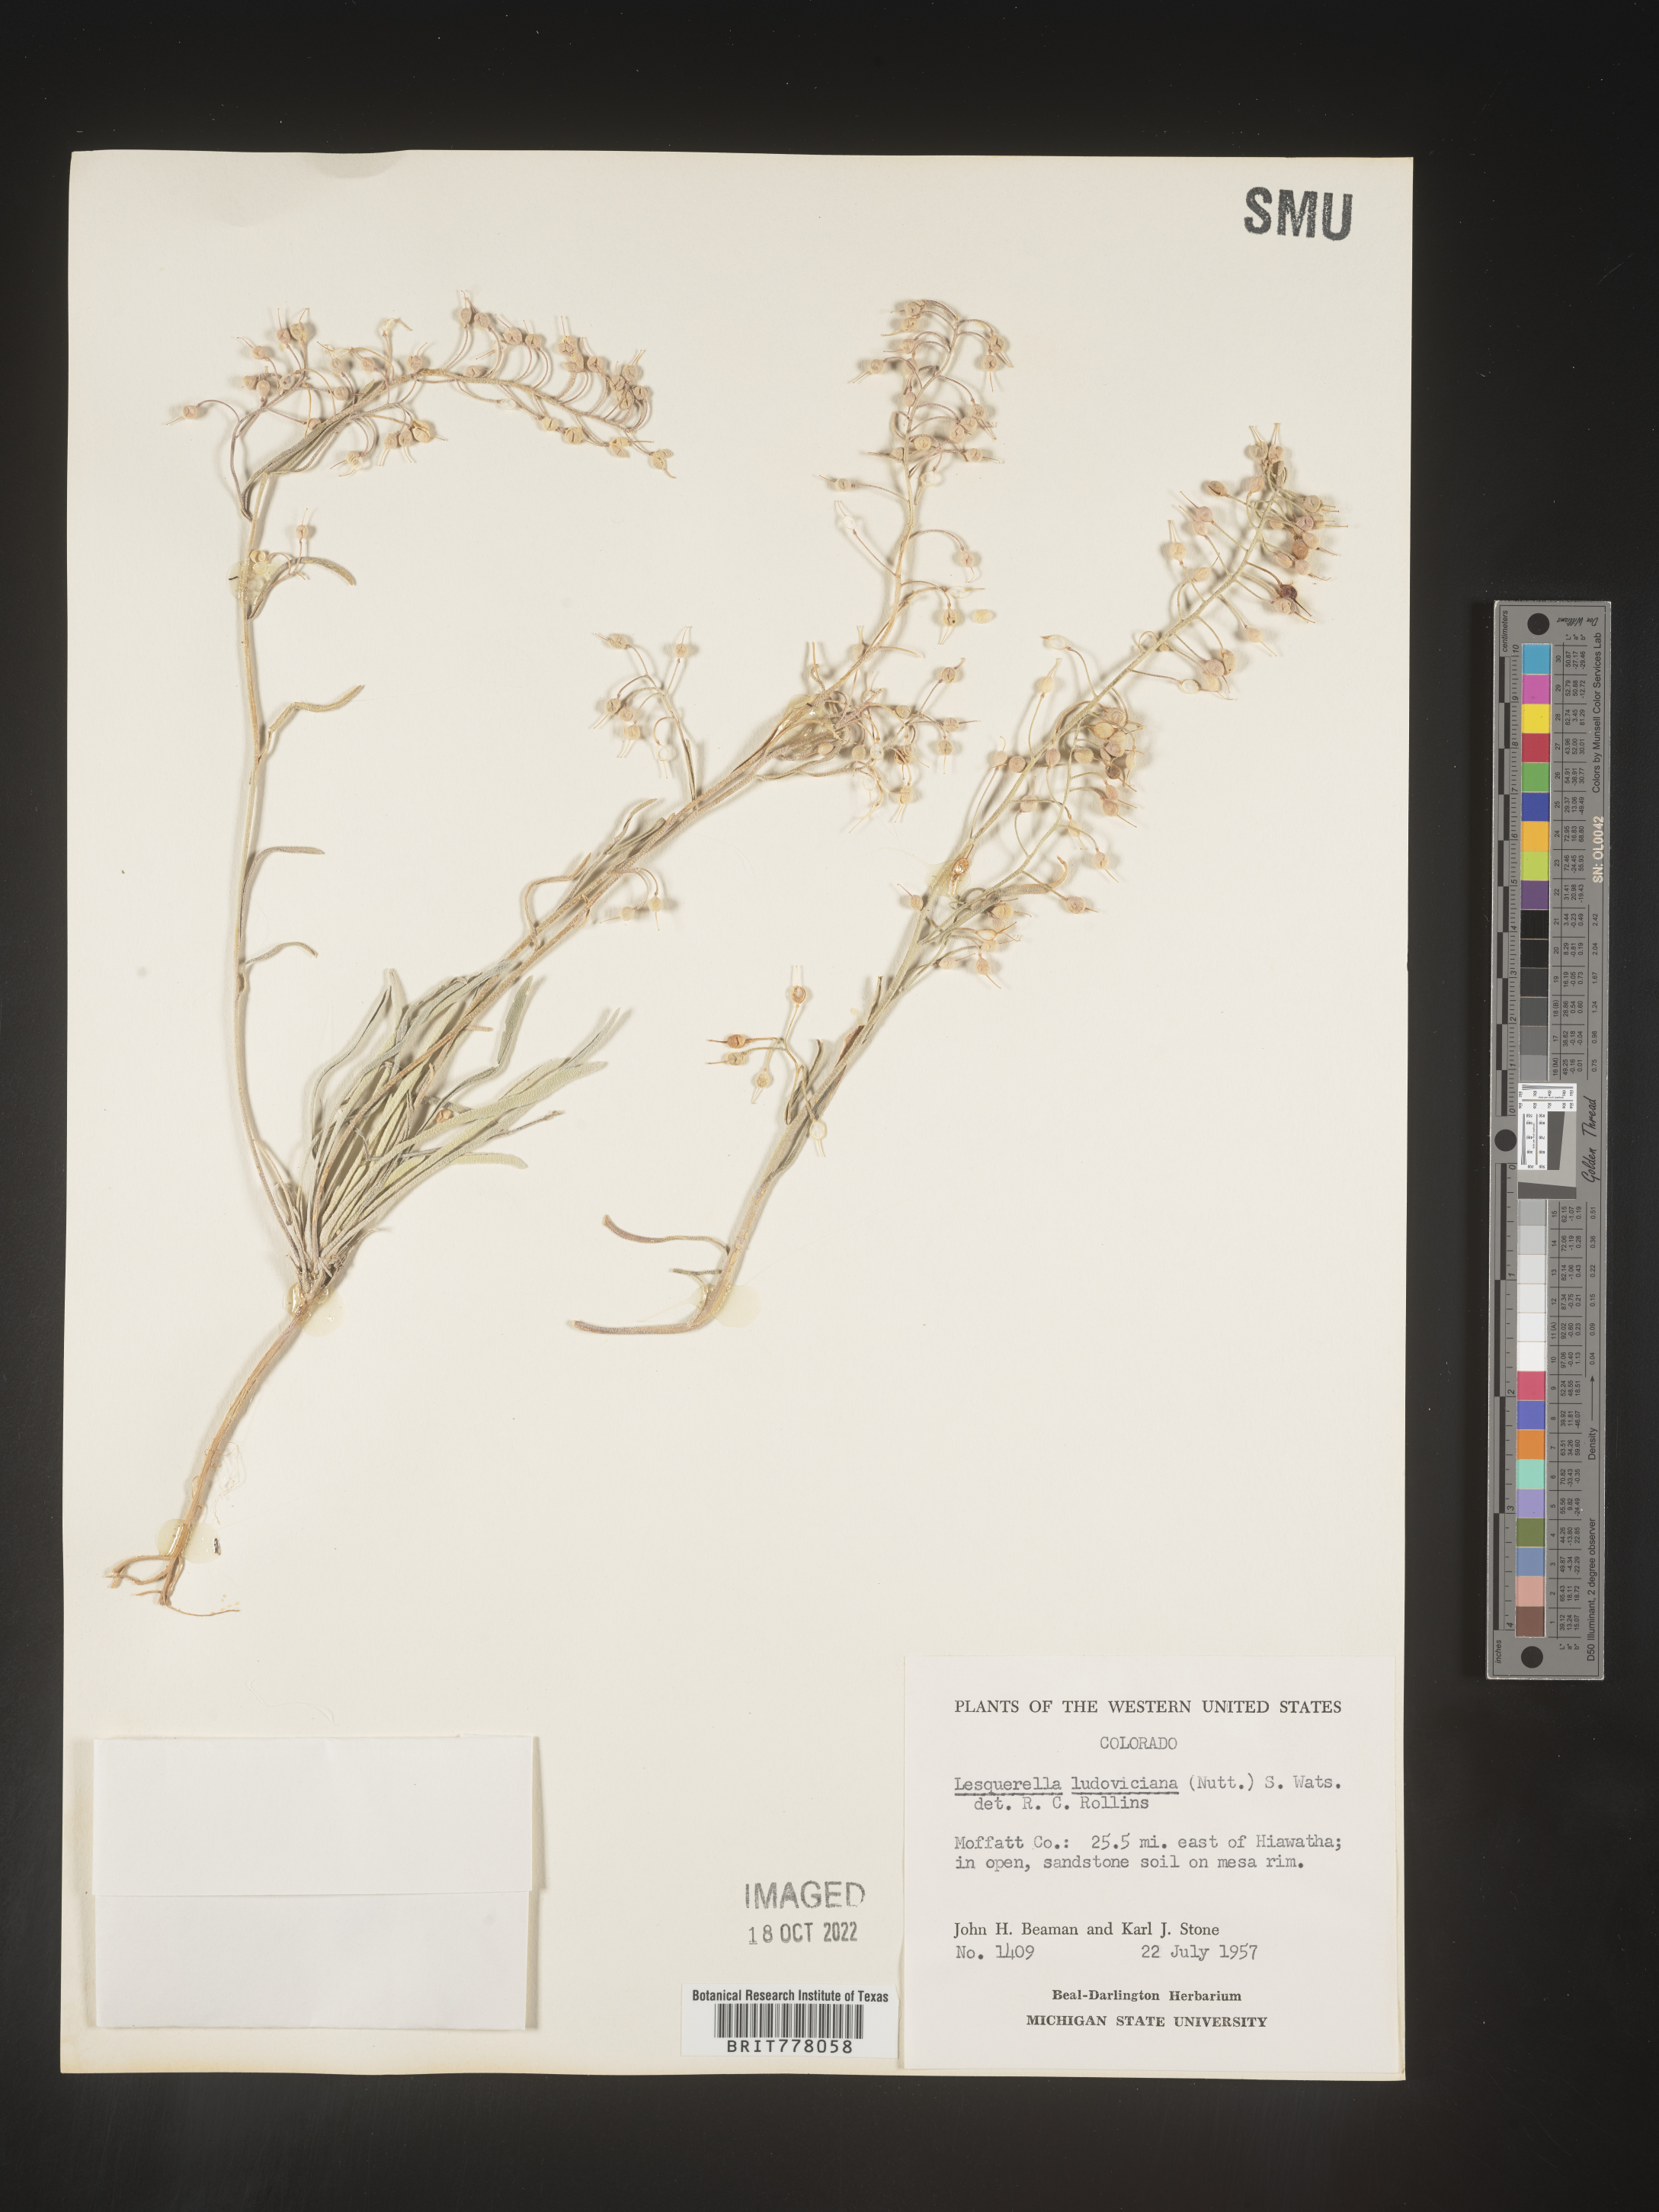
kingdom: Chromista
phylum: Cercozoa
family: Psammonobiotidae
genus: Lesquerella
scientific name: Lesquerella
